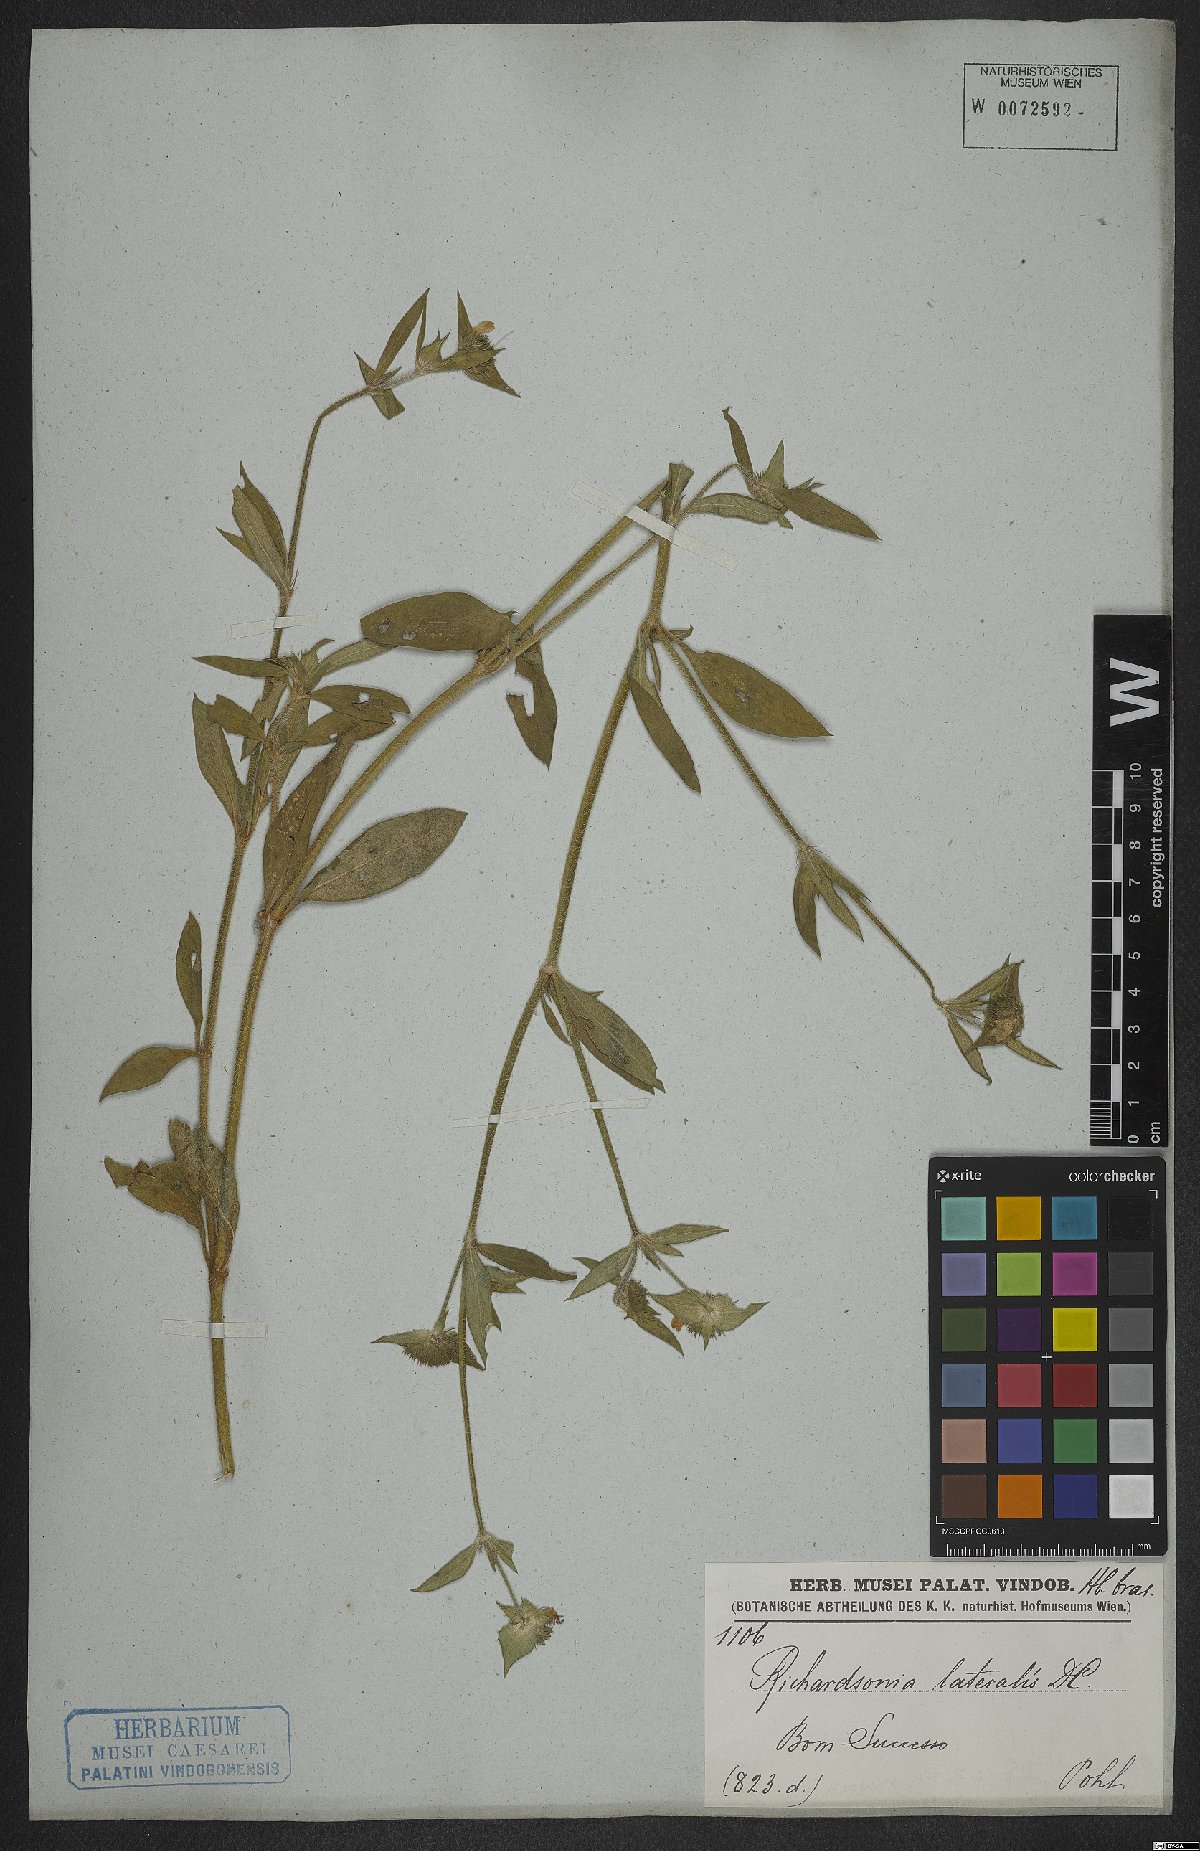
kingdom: Plantae
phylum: Tracheophyta
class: Magnoliopsida
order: Gentianales
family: Rubiaceae
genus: Richardia
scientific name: Richardia grandiflora
